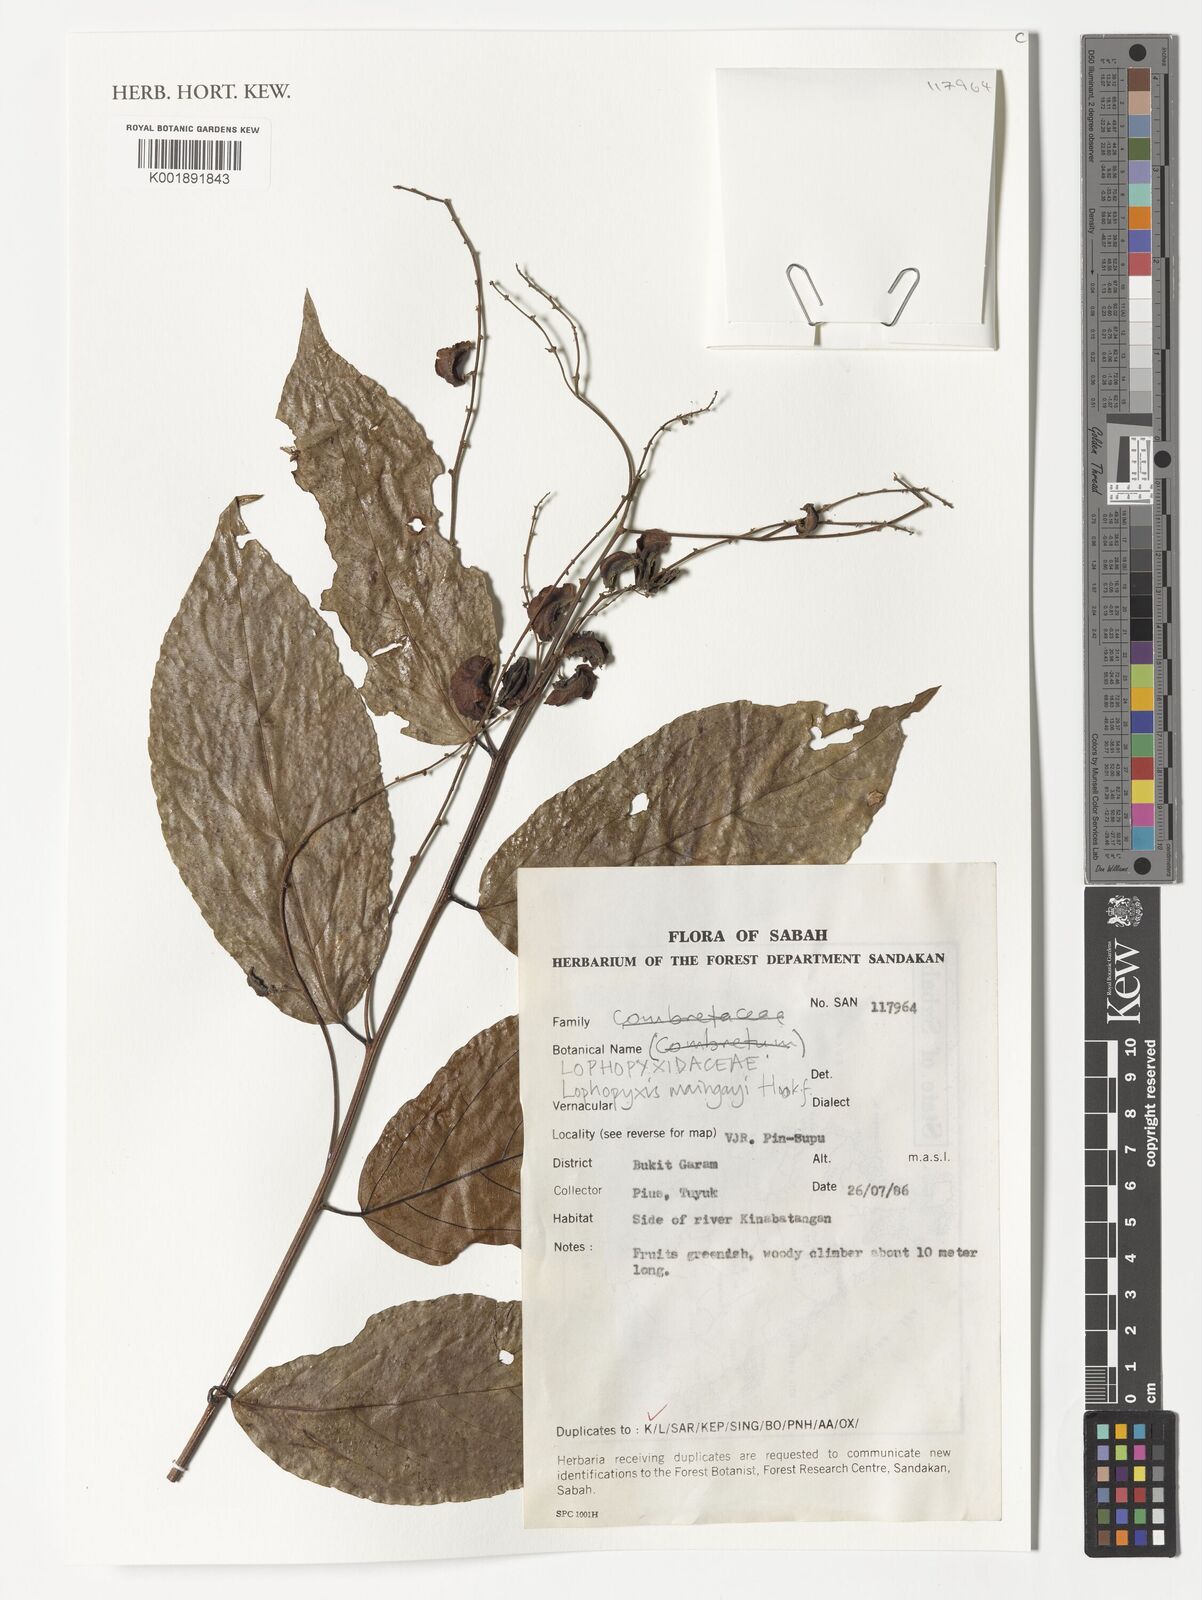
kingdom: Plantae
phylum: Tracheophyta
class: Magnoliopsida
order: Malpighiales
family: Lophopyxidaceae
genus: Lophopyxis
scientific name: Lophopyxis maingayi
